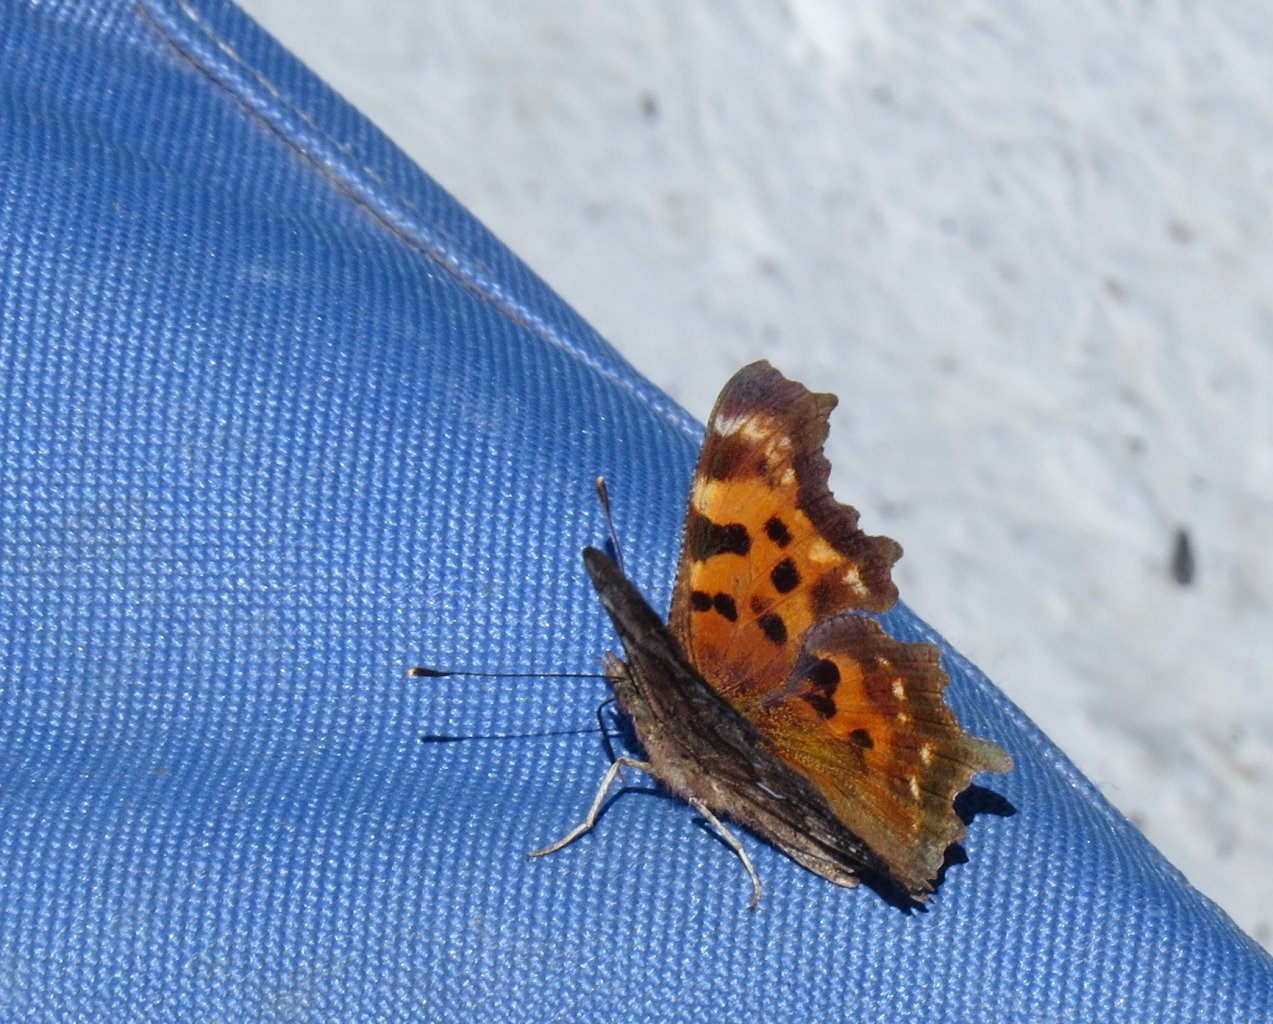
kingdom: Animalia
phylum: Arthropoda
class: Insecta
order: Lepidoptera
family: Nymphalidae
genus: Polygonia
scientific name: Polygonia comma
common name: Eastern Comma
